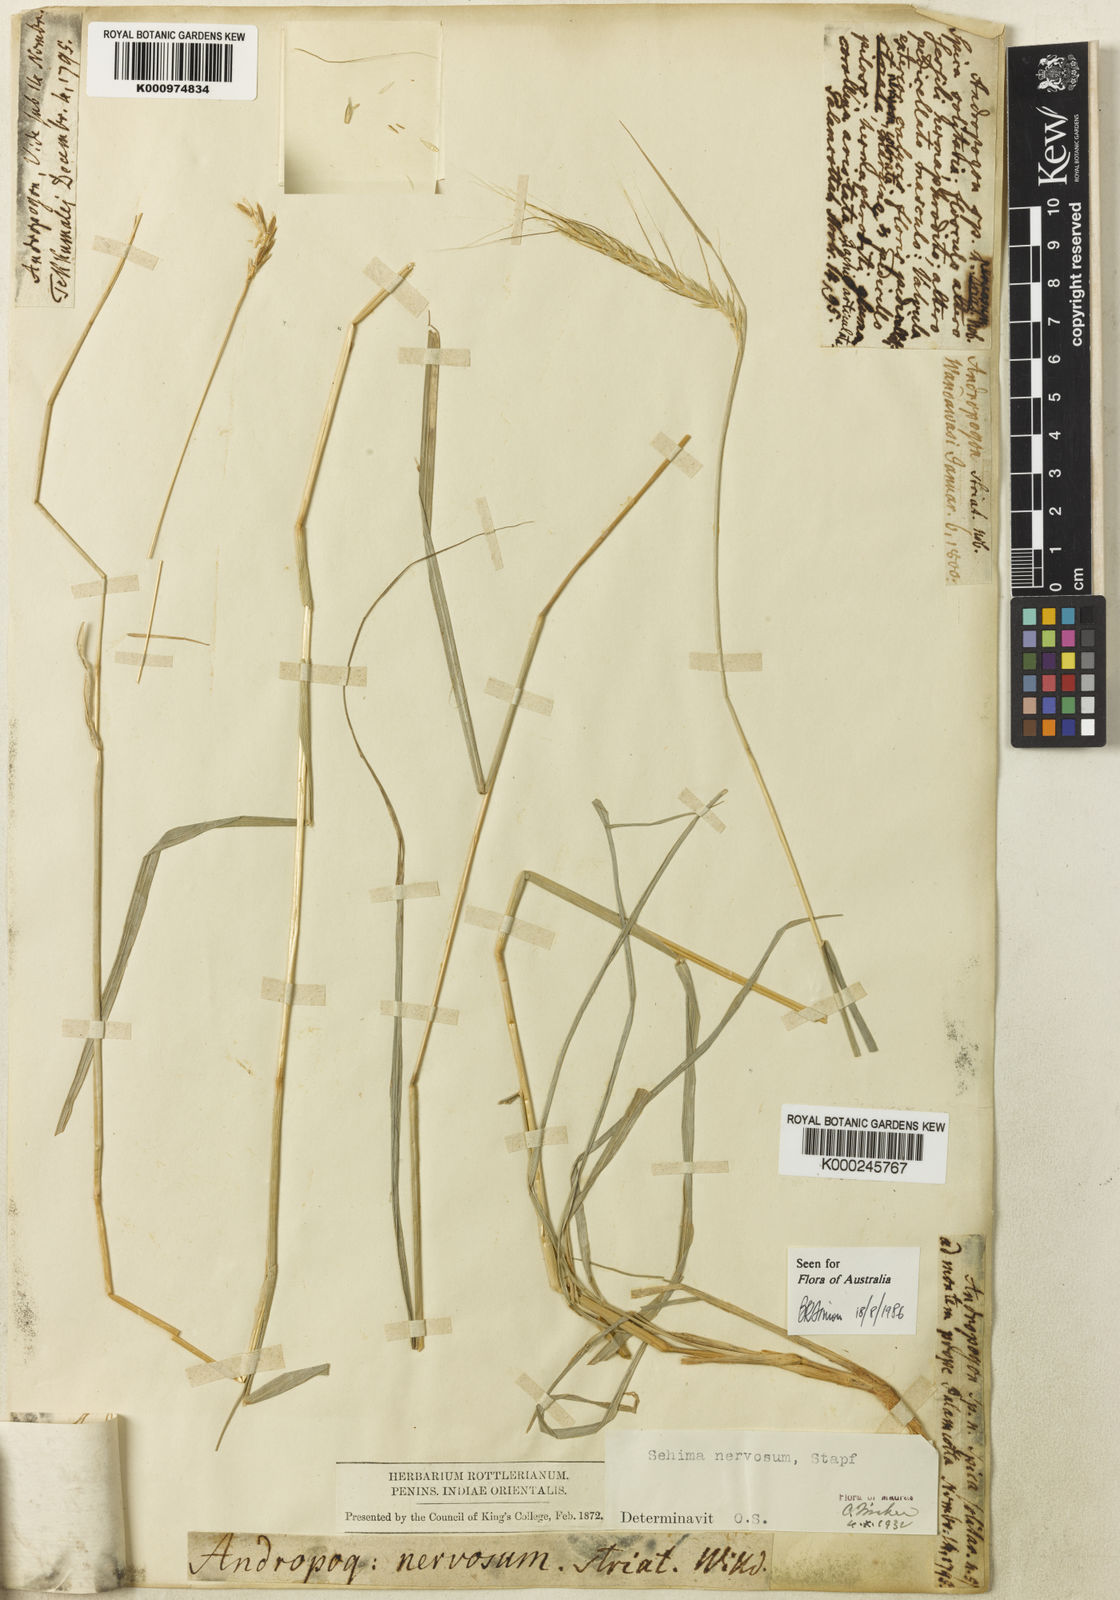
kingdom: Plantae
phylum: Tracheophyta
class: Liliopsida
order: Poales
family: Poaceae
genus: Sehima
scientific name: Sehima nervosa
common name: Rat-tail grass
